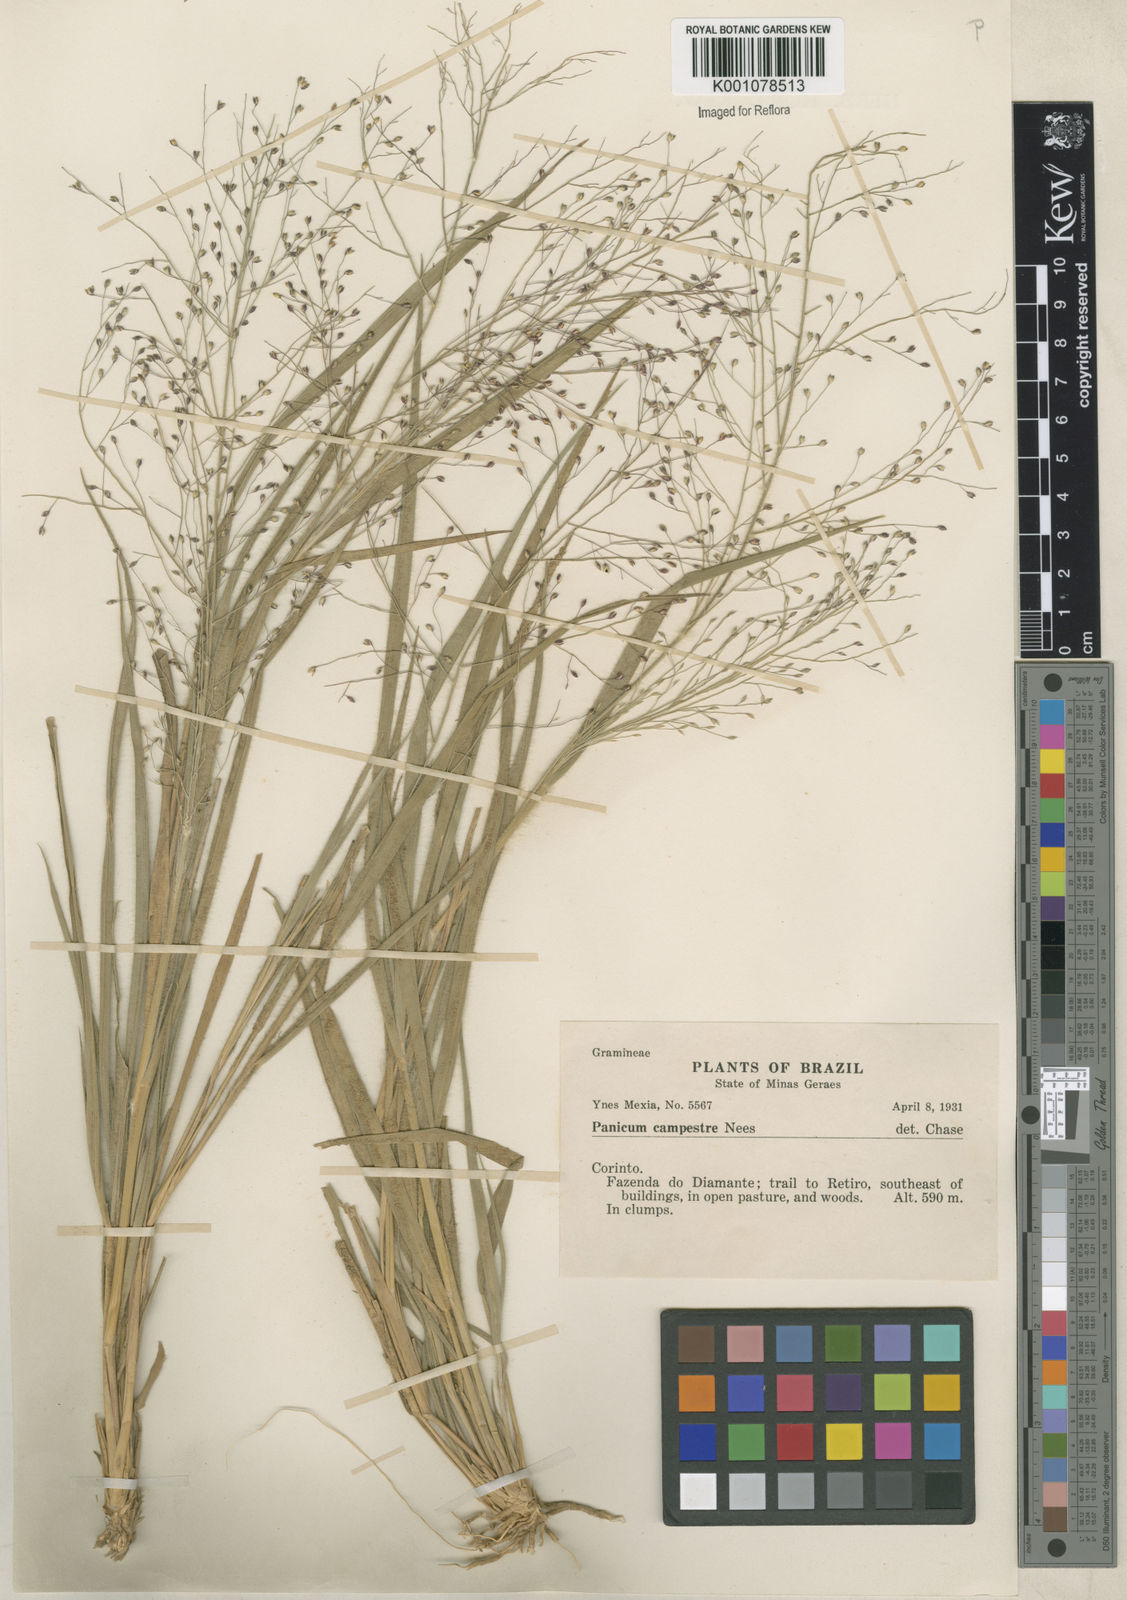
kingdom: Plantae
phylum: Tracheophyta
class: Liliopsida
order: Poales
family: Poaceae
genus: Panicum
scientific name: Panicum campestre
